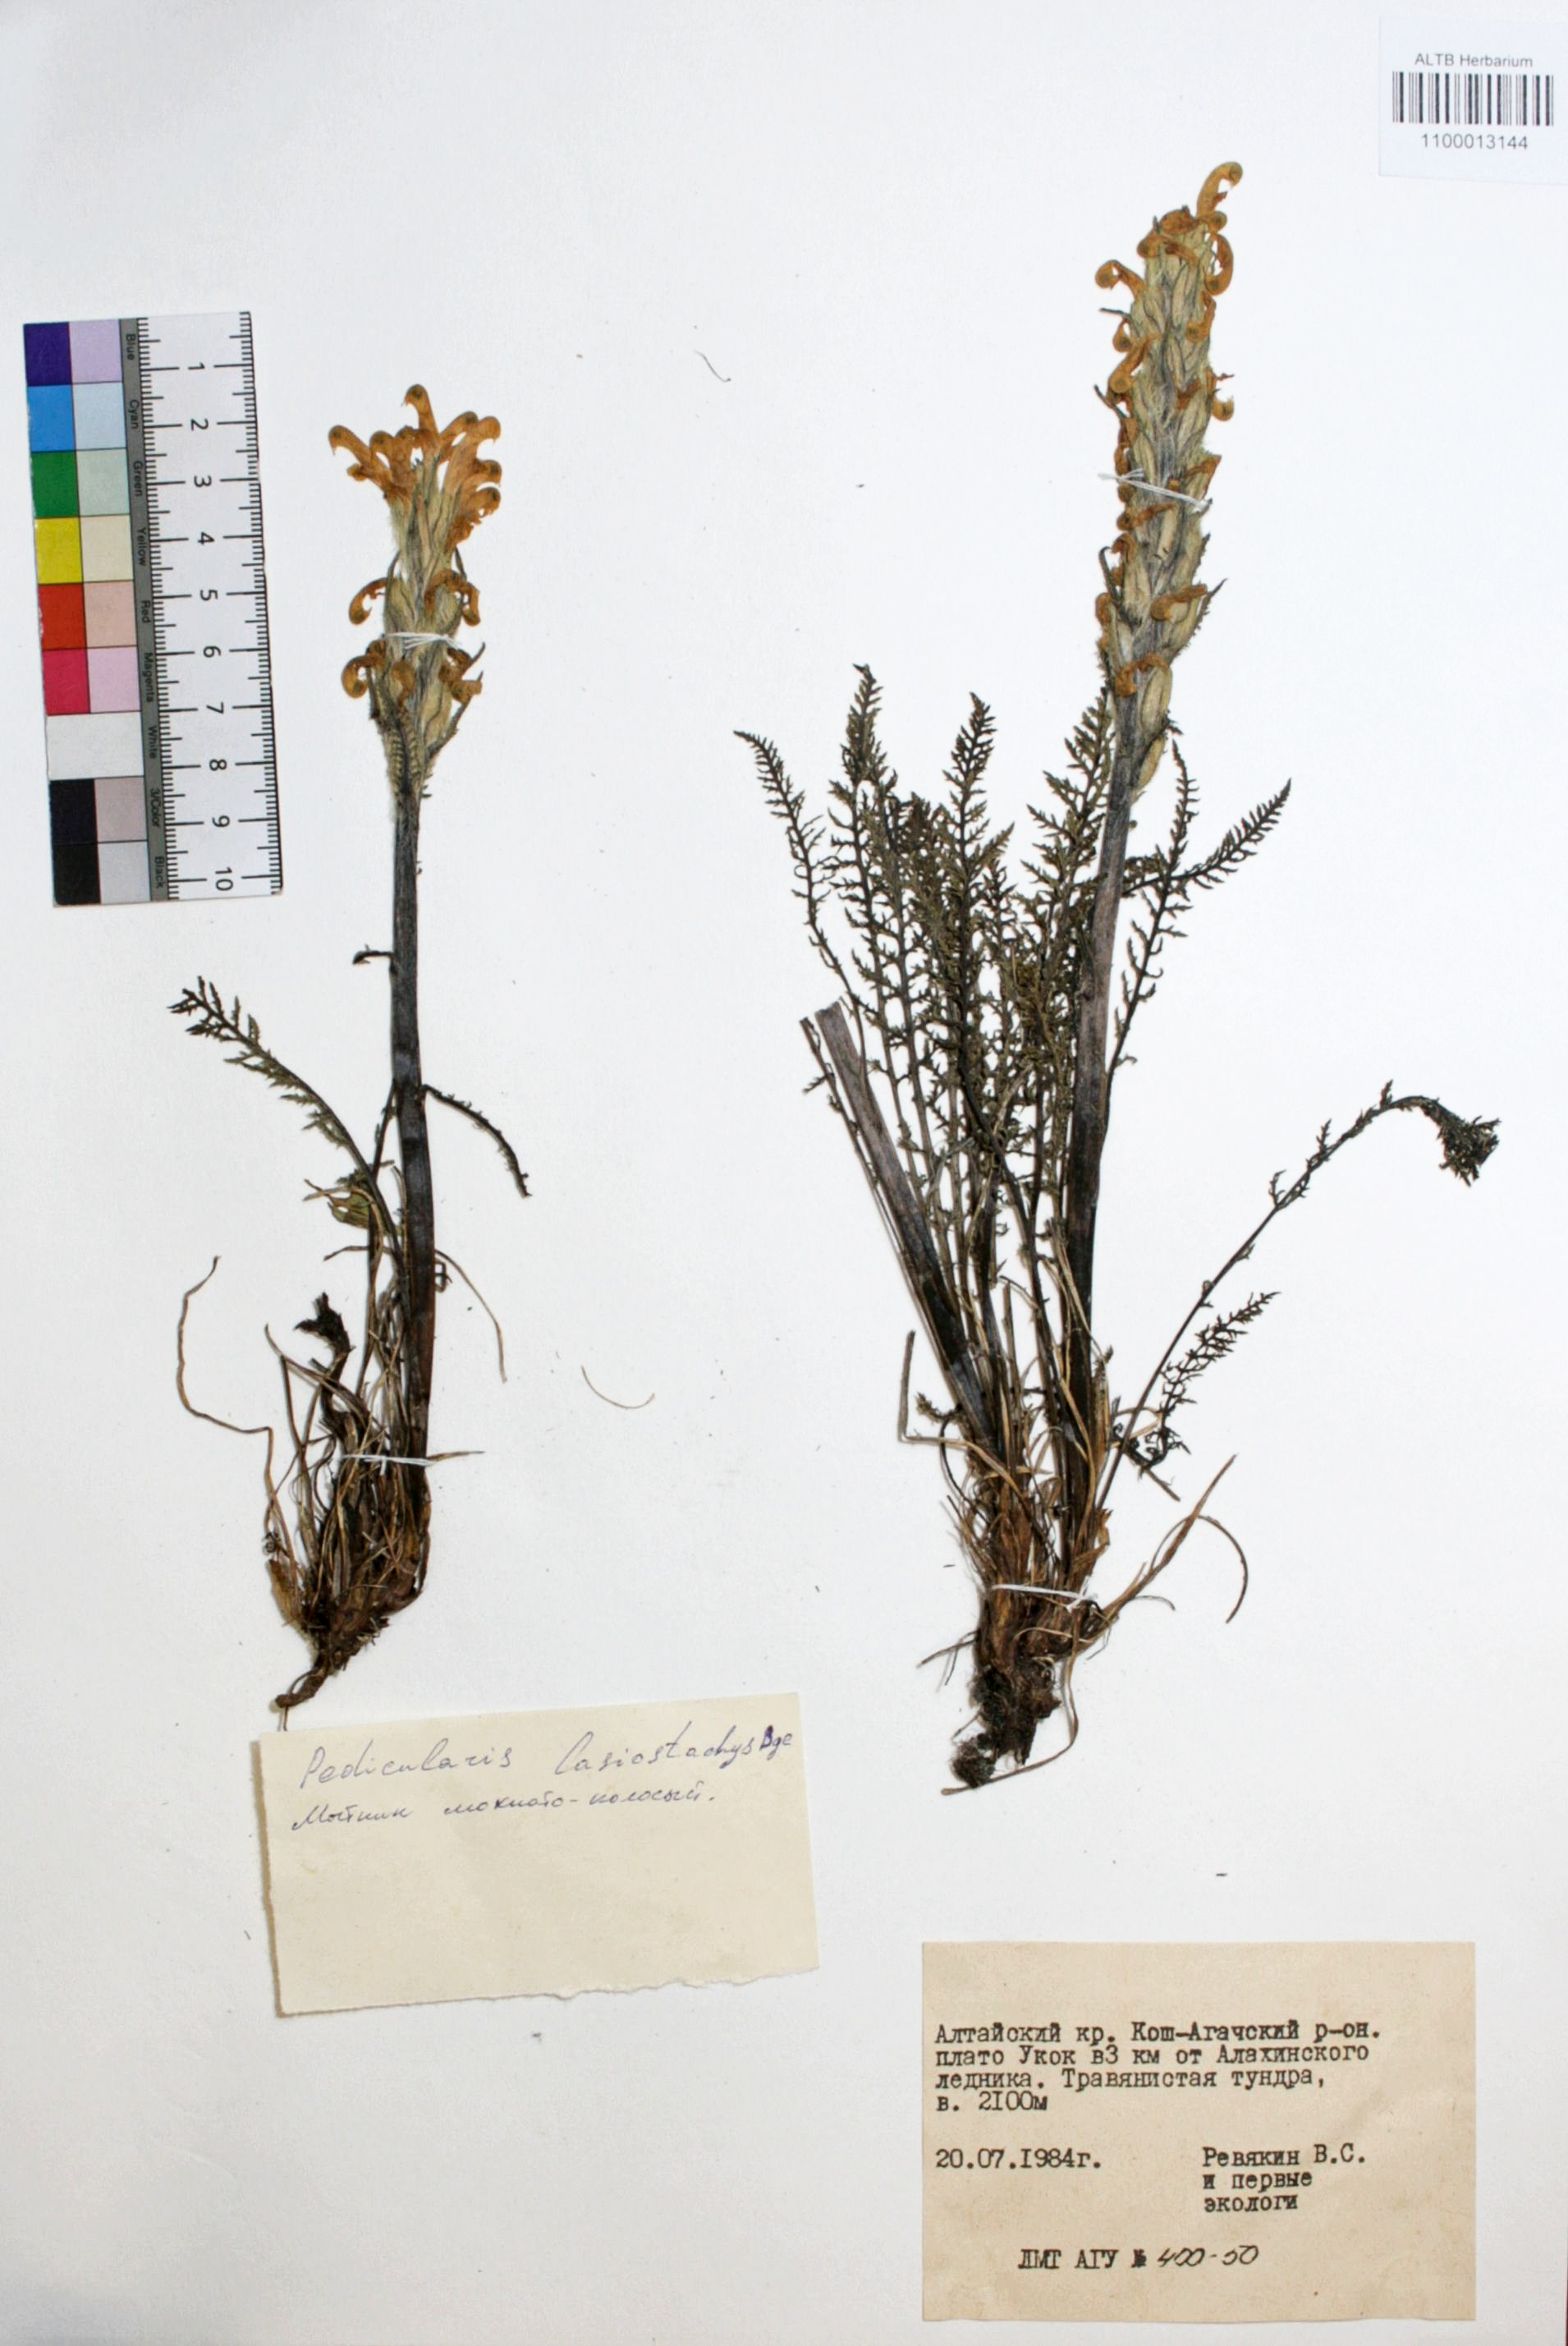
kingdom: Plantae
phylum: Tracheophyta
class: Magnoliopsida
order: Lamiales
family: Orobanchaceae
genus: Pedicularis
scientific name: Pedicularis lasiostachys
